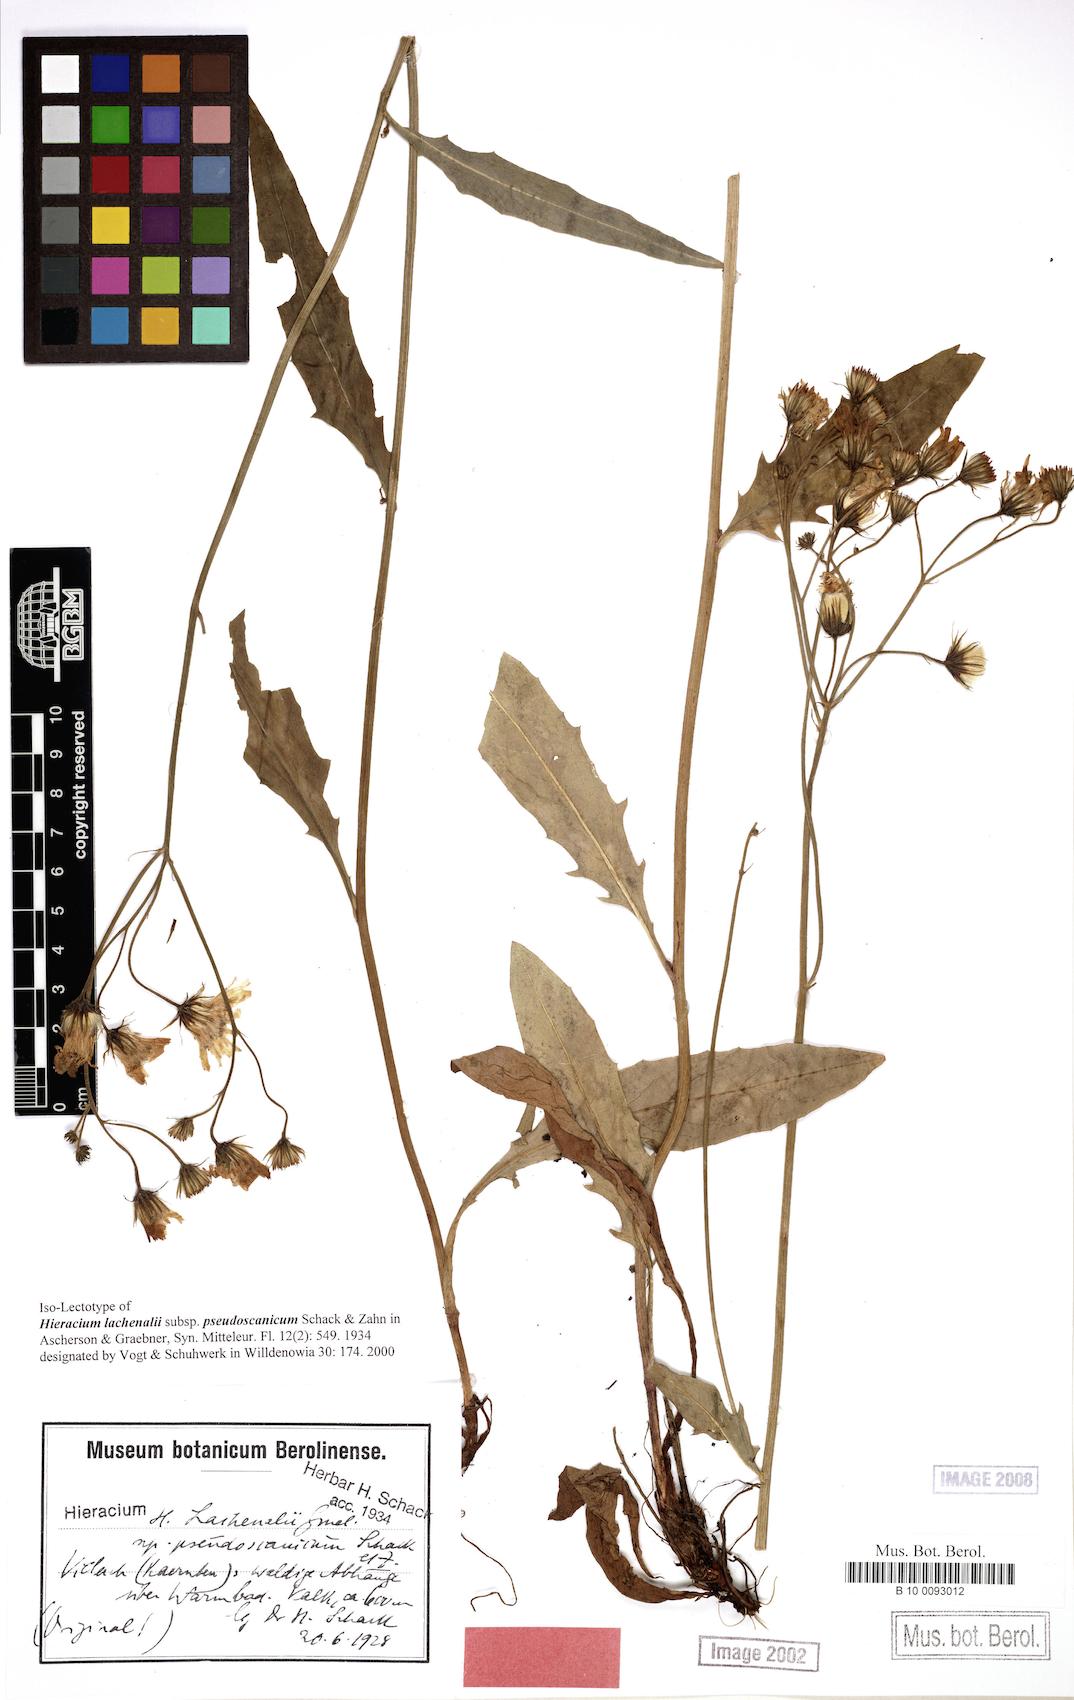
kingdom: Plantae
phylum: Tracheophyta
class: Magnoliopsida
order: Asterales
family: Asteraceae
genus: Hieracium
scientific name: Hieracium lachenalii
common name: Common hawkweed
